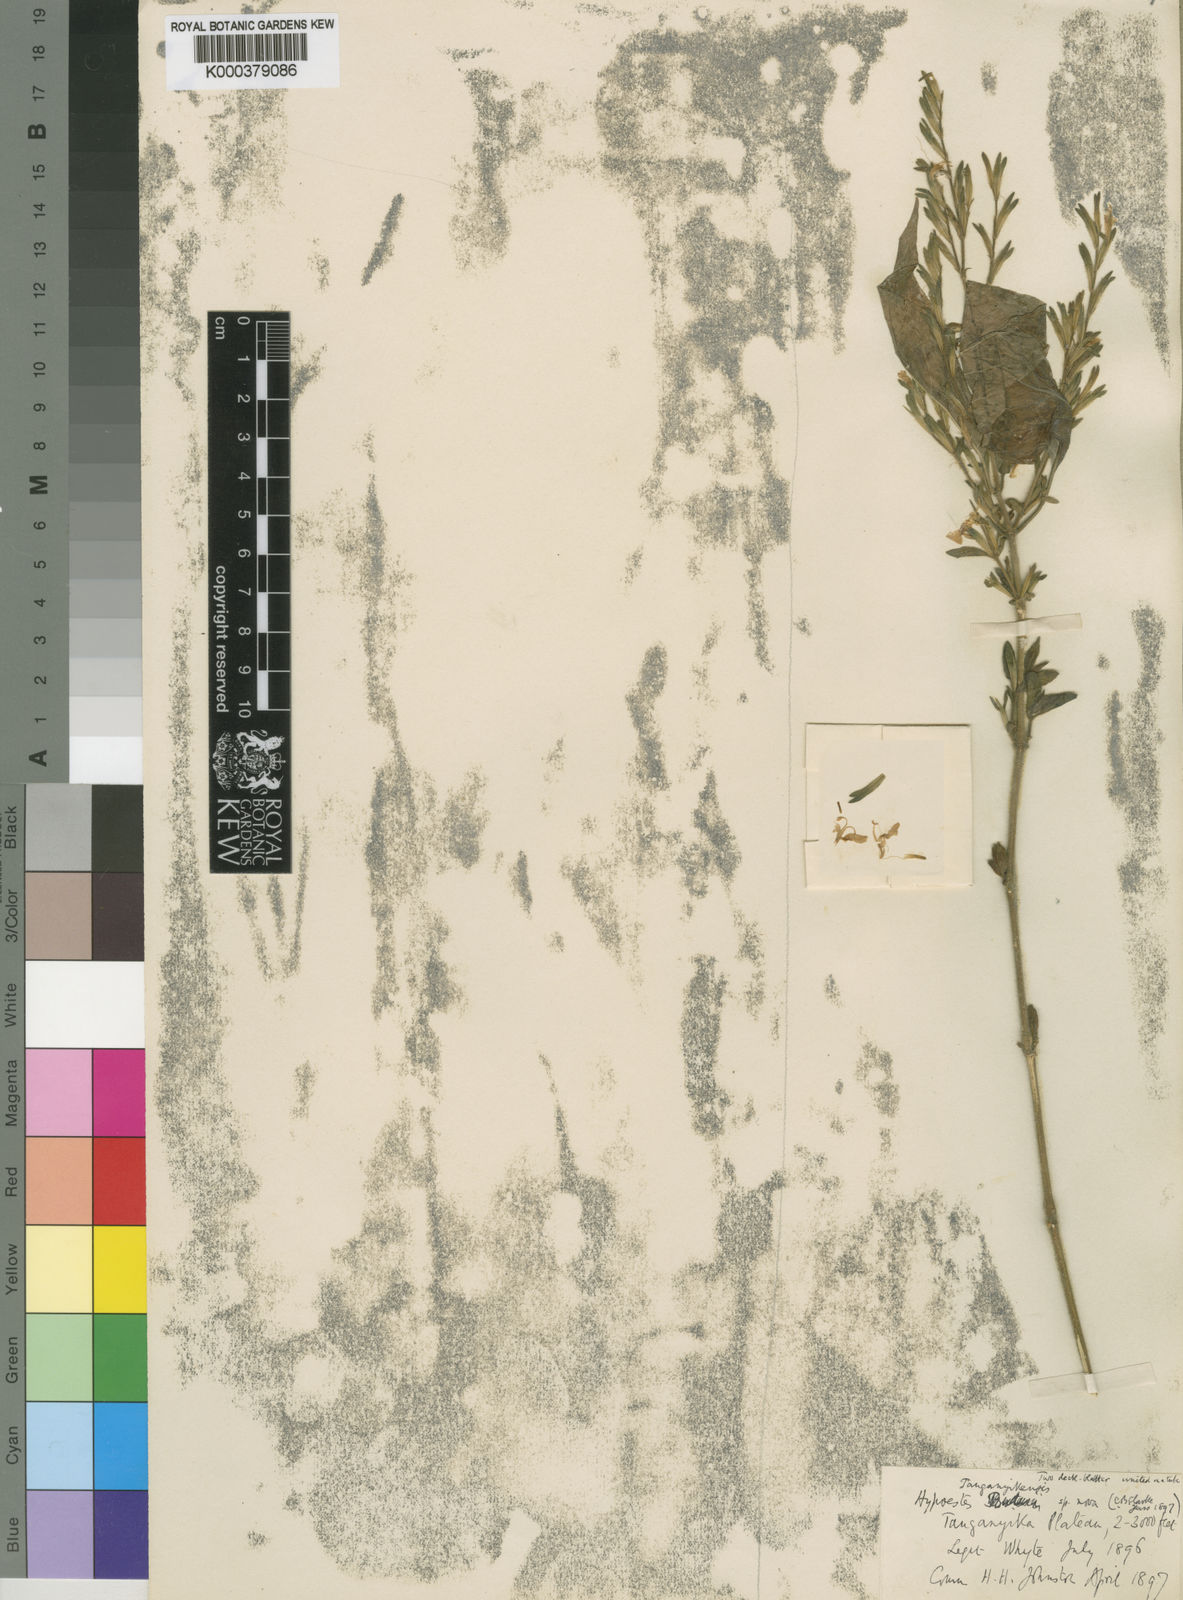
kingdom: Plantae
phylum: Tracheophyta
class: Magnoliopsida
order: Lamiales
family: Acanthaceae
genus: Hypoestes
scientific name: Hypoestes
